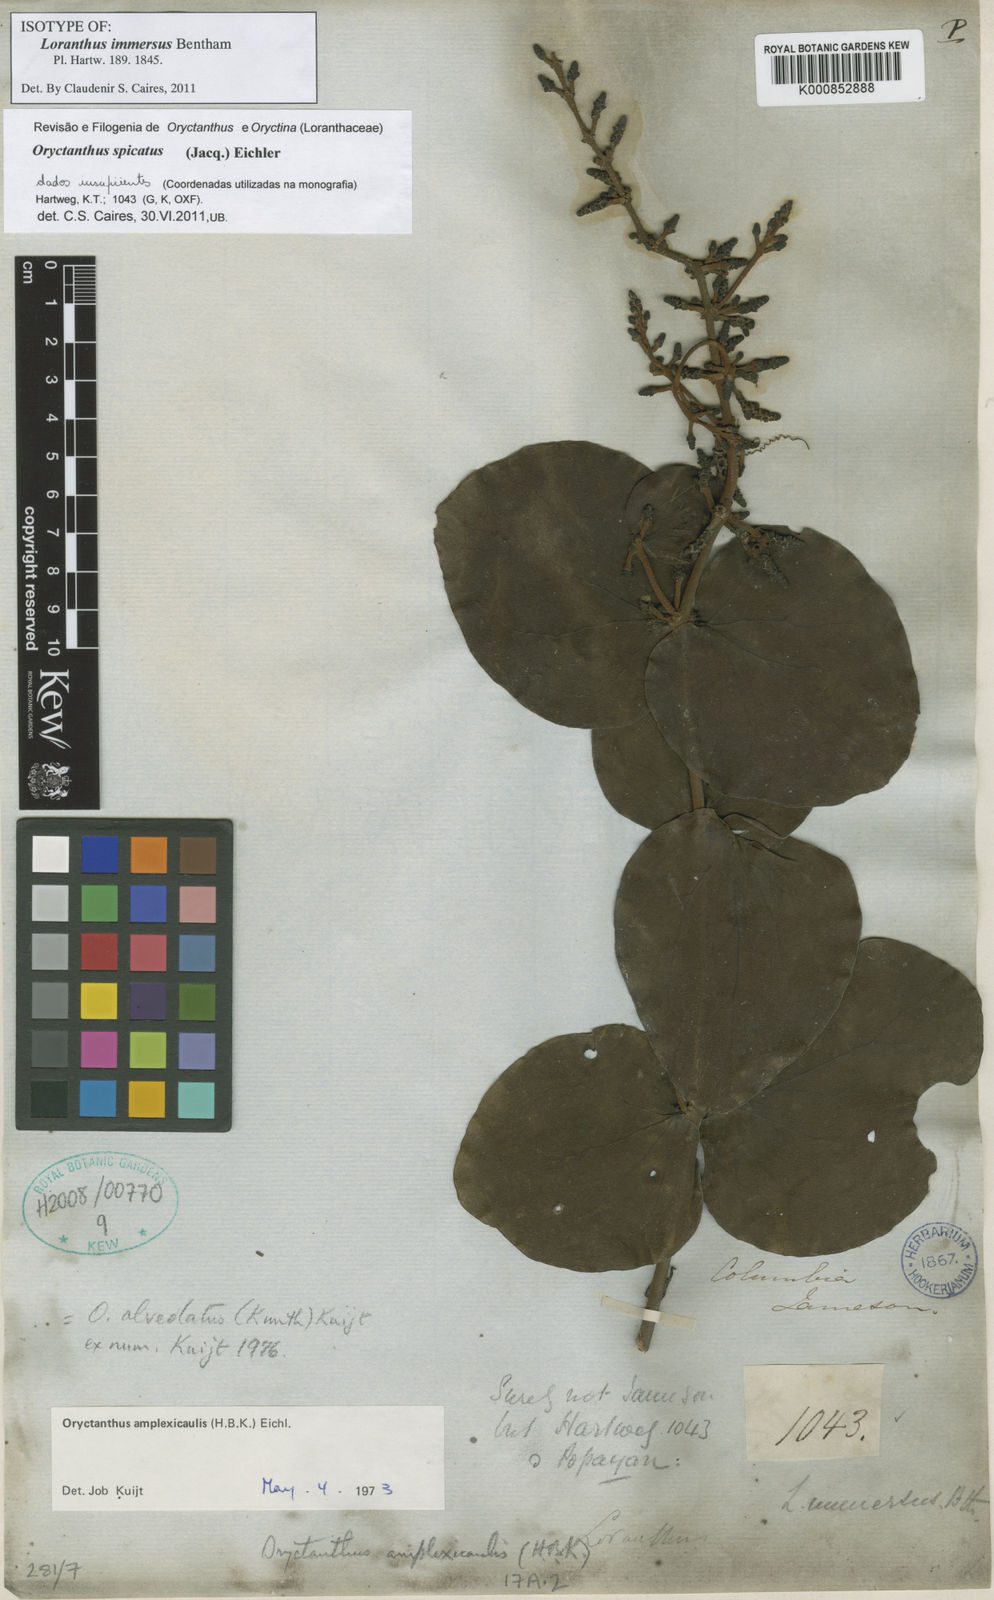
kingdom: Plantae
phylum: Tracheophyta
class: Magnoliopsida
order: Santalales
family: Loranthaceae
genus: Oryctanthus
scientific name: Oryctanthus spicatus
